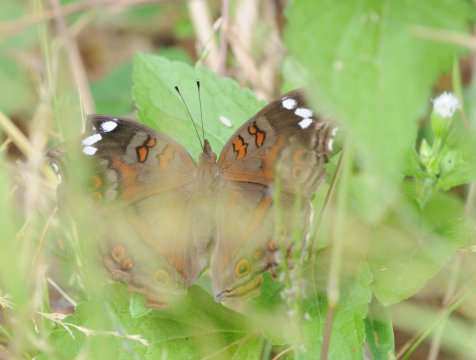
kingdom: Animalia
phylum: Arthropoda
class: Insecta
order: Lepidoptera
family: Nymphalidae
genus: Junonia
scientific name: Junonia natalica
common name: Natal Pansy
